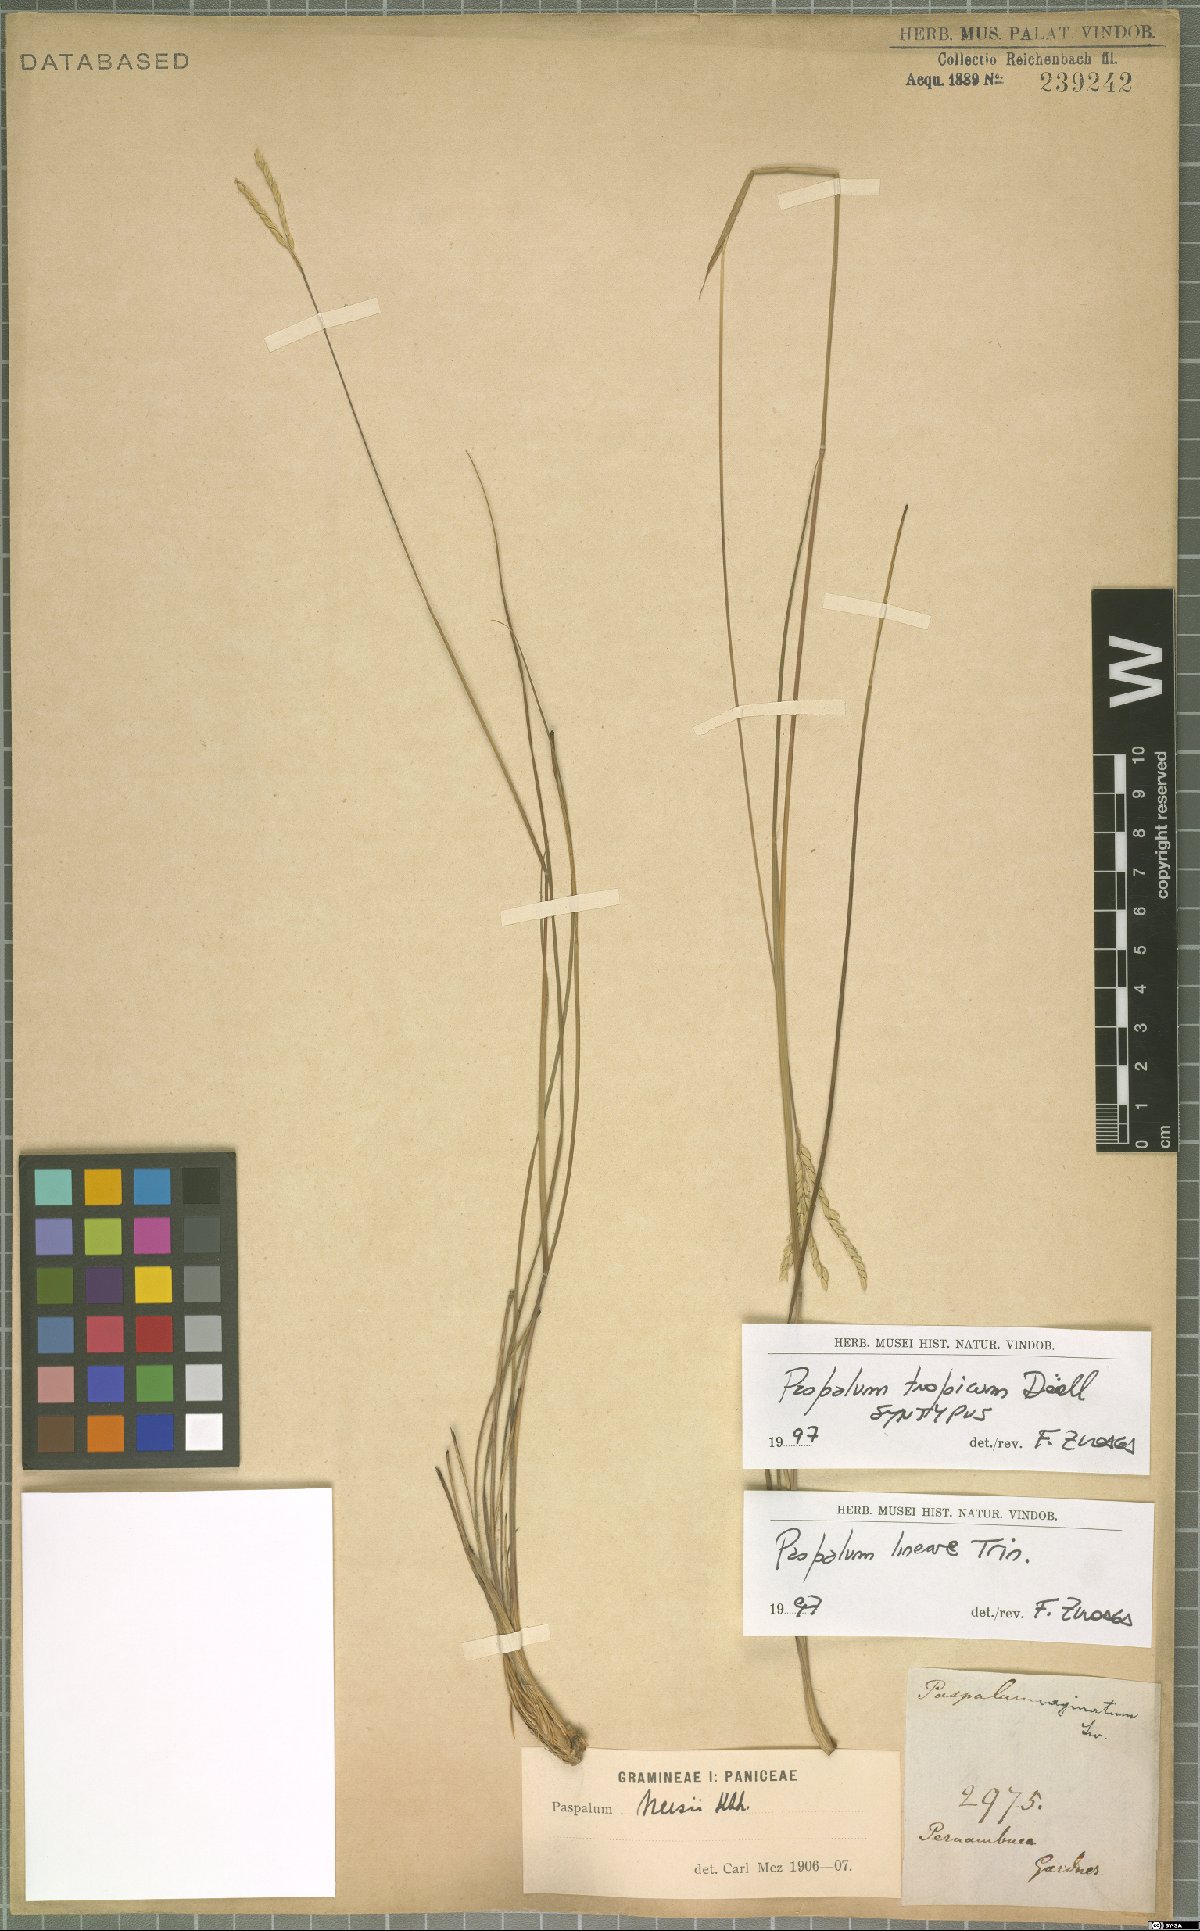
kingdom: Plantae
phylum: Tracheophyta
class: Liliopsida
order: Poales
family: Poaceae
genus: Paspalum
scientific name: Paspalum lineare
